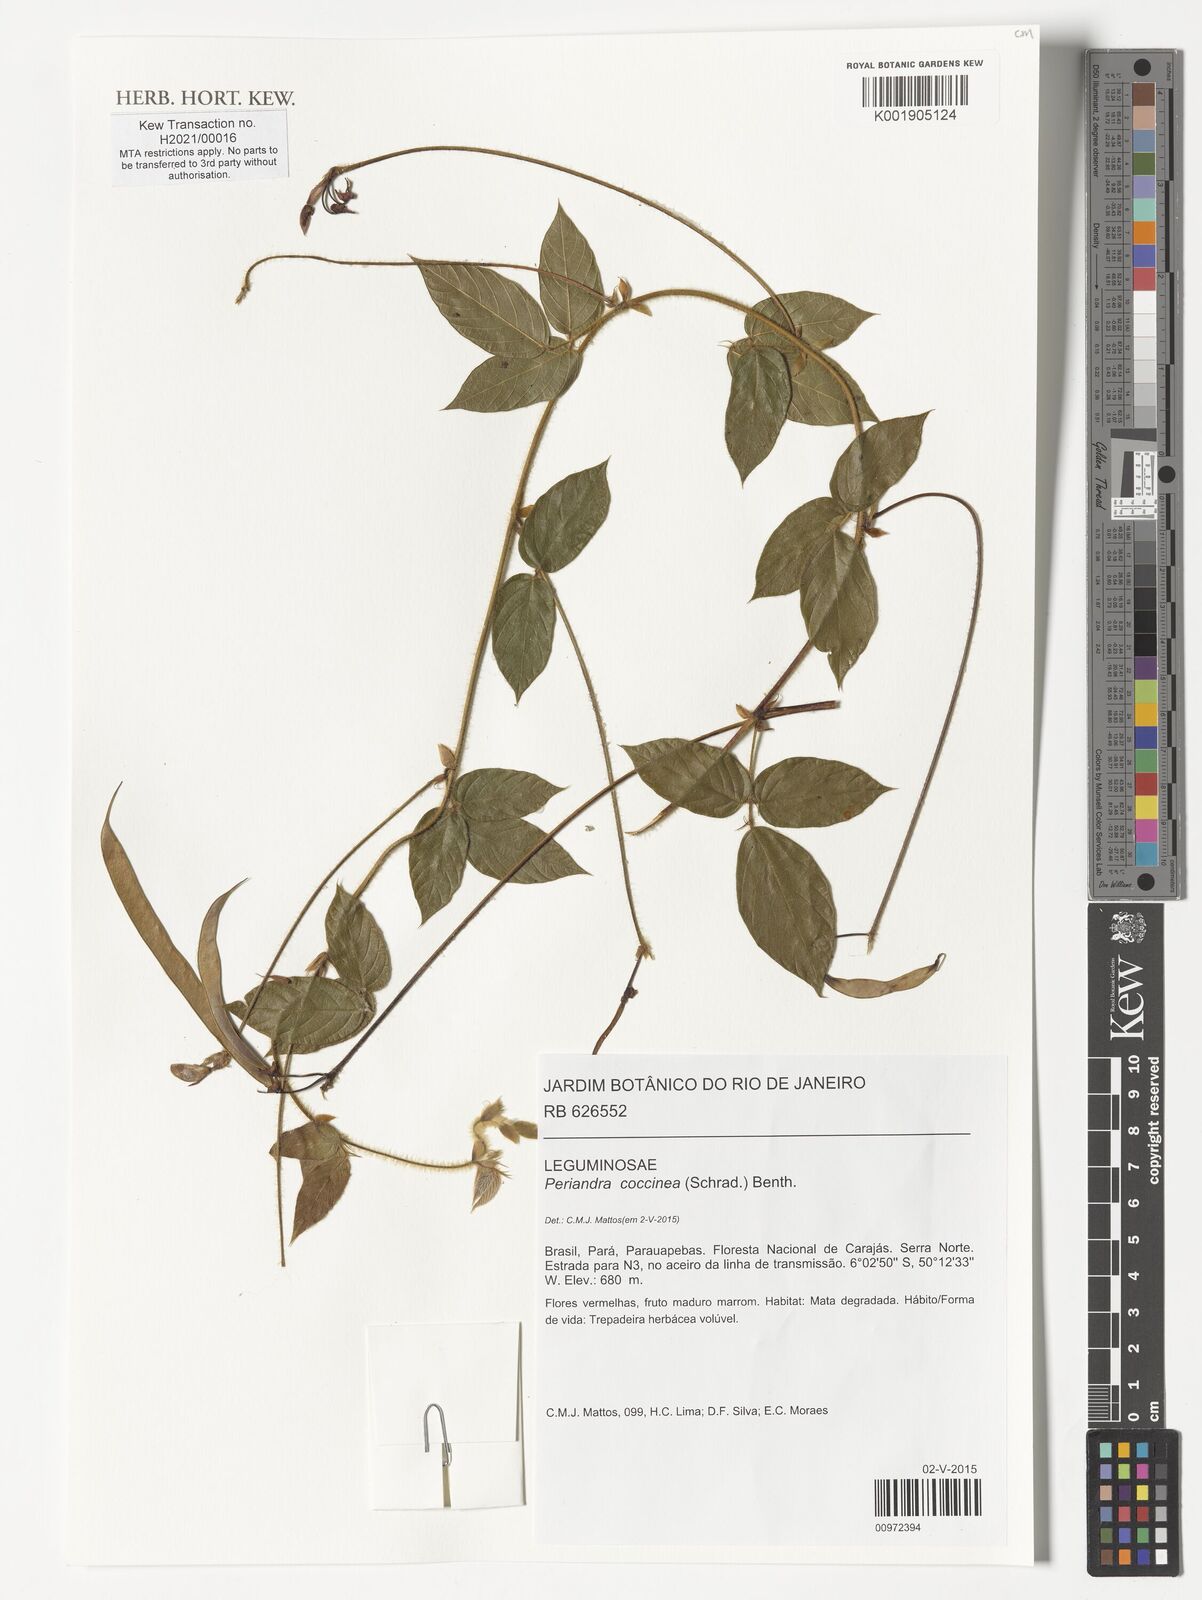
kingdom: Plantae
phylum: Tracheophyta
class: Magnoliopsida
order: Fabales
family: Fabaceae
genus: Periandra
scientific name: Periandra coccinea
